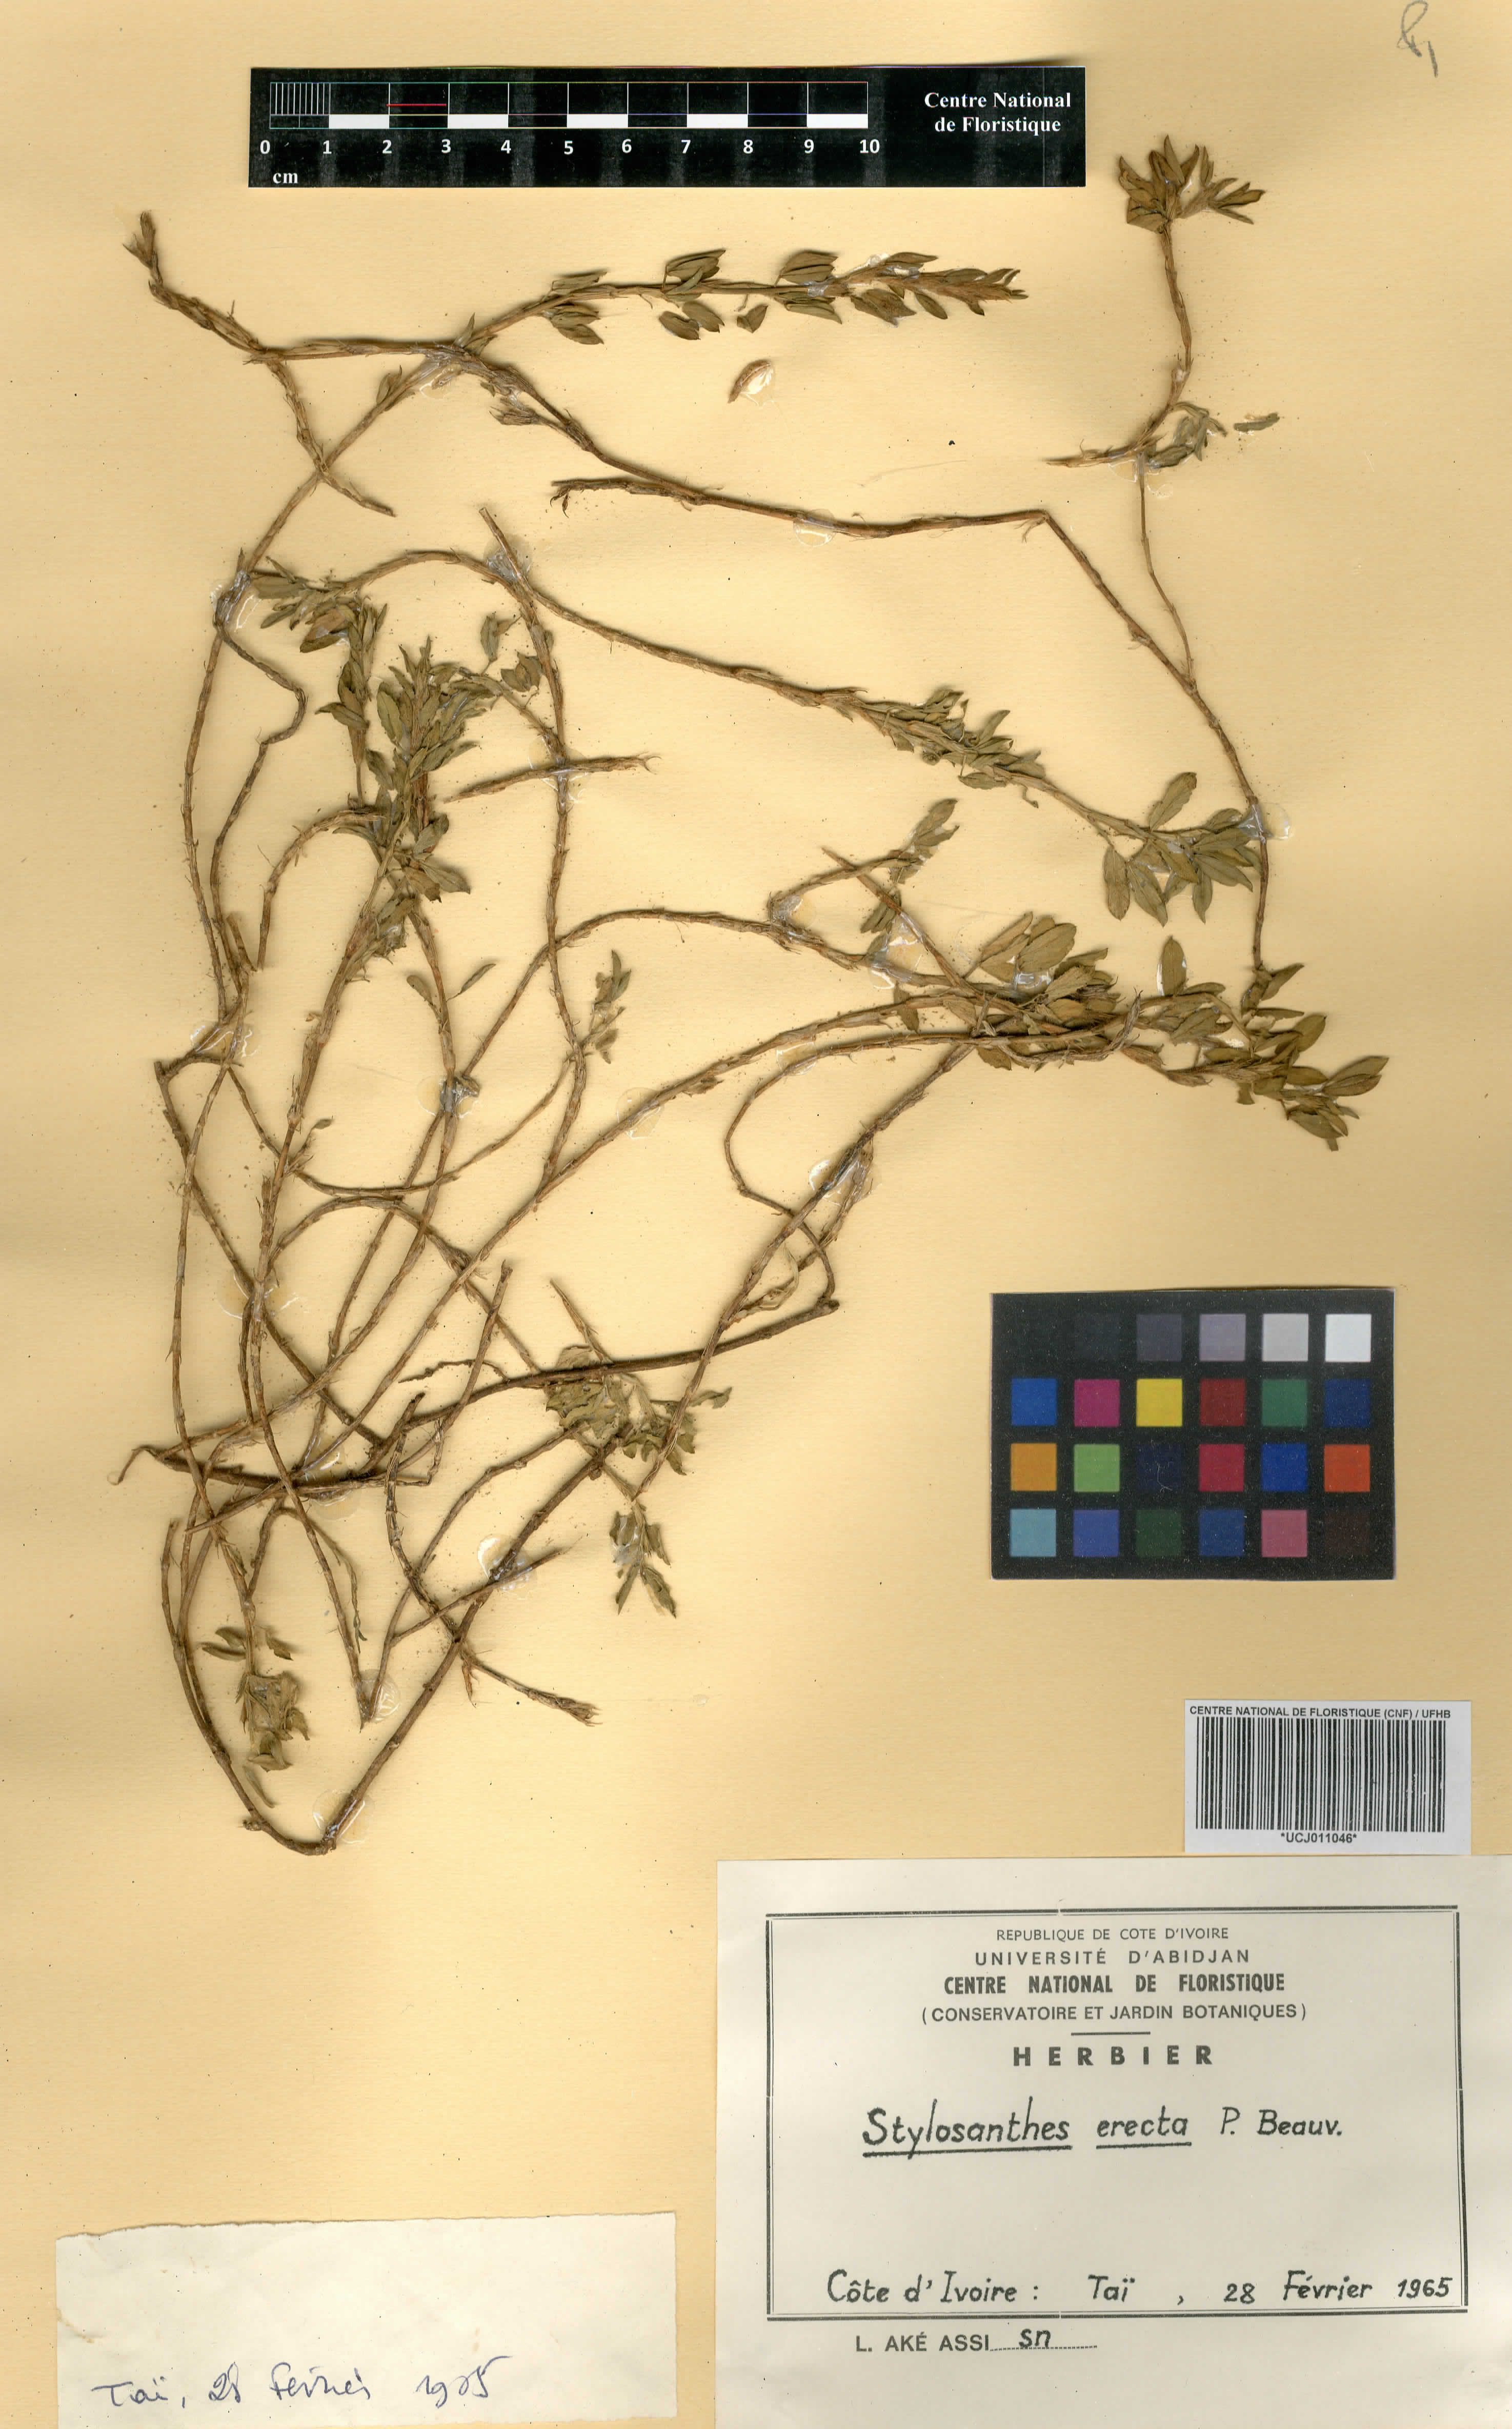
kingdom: Plantae
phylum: Tracheophyta
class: Magnoliopsida
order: Fabales
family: Fabaceae
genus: Stylosanthes
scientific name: Stylosanthes erecta
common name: Nigerian stylo
